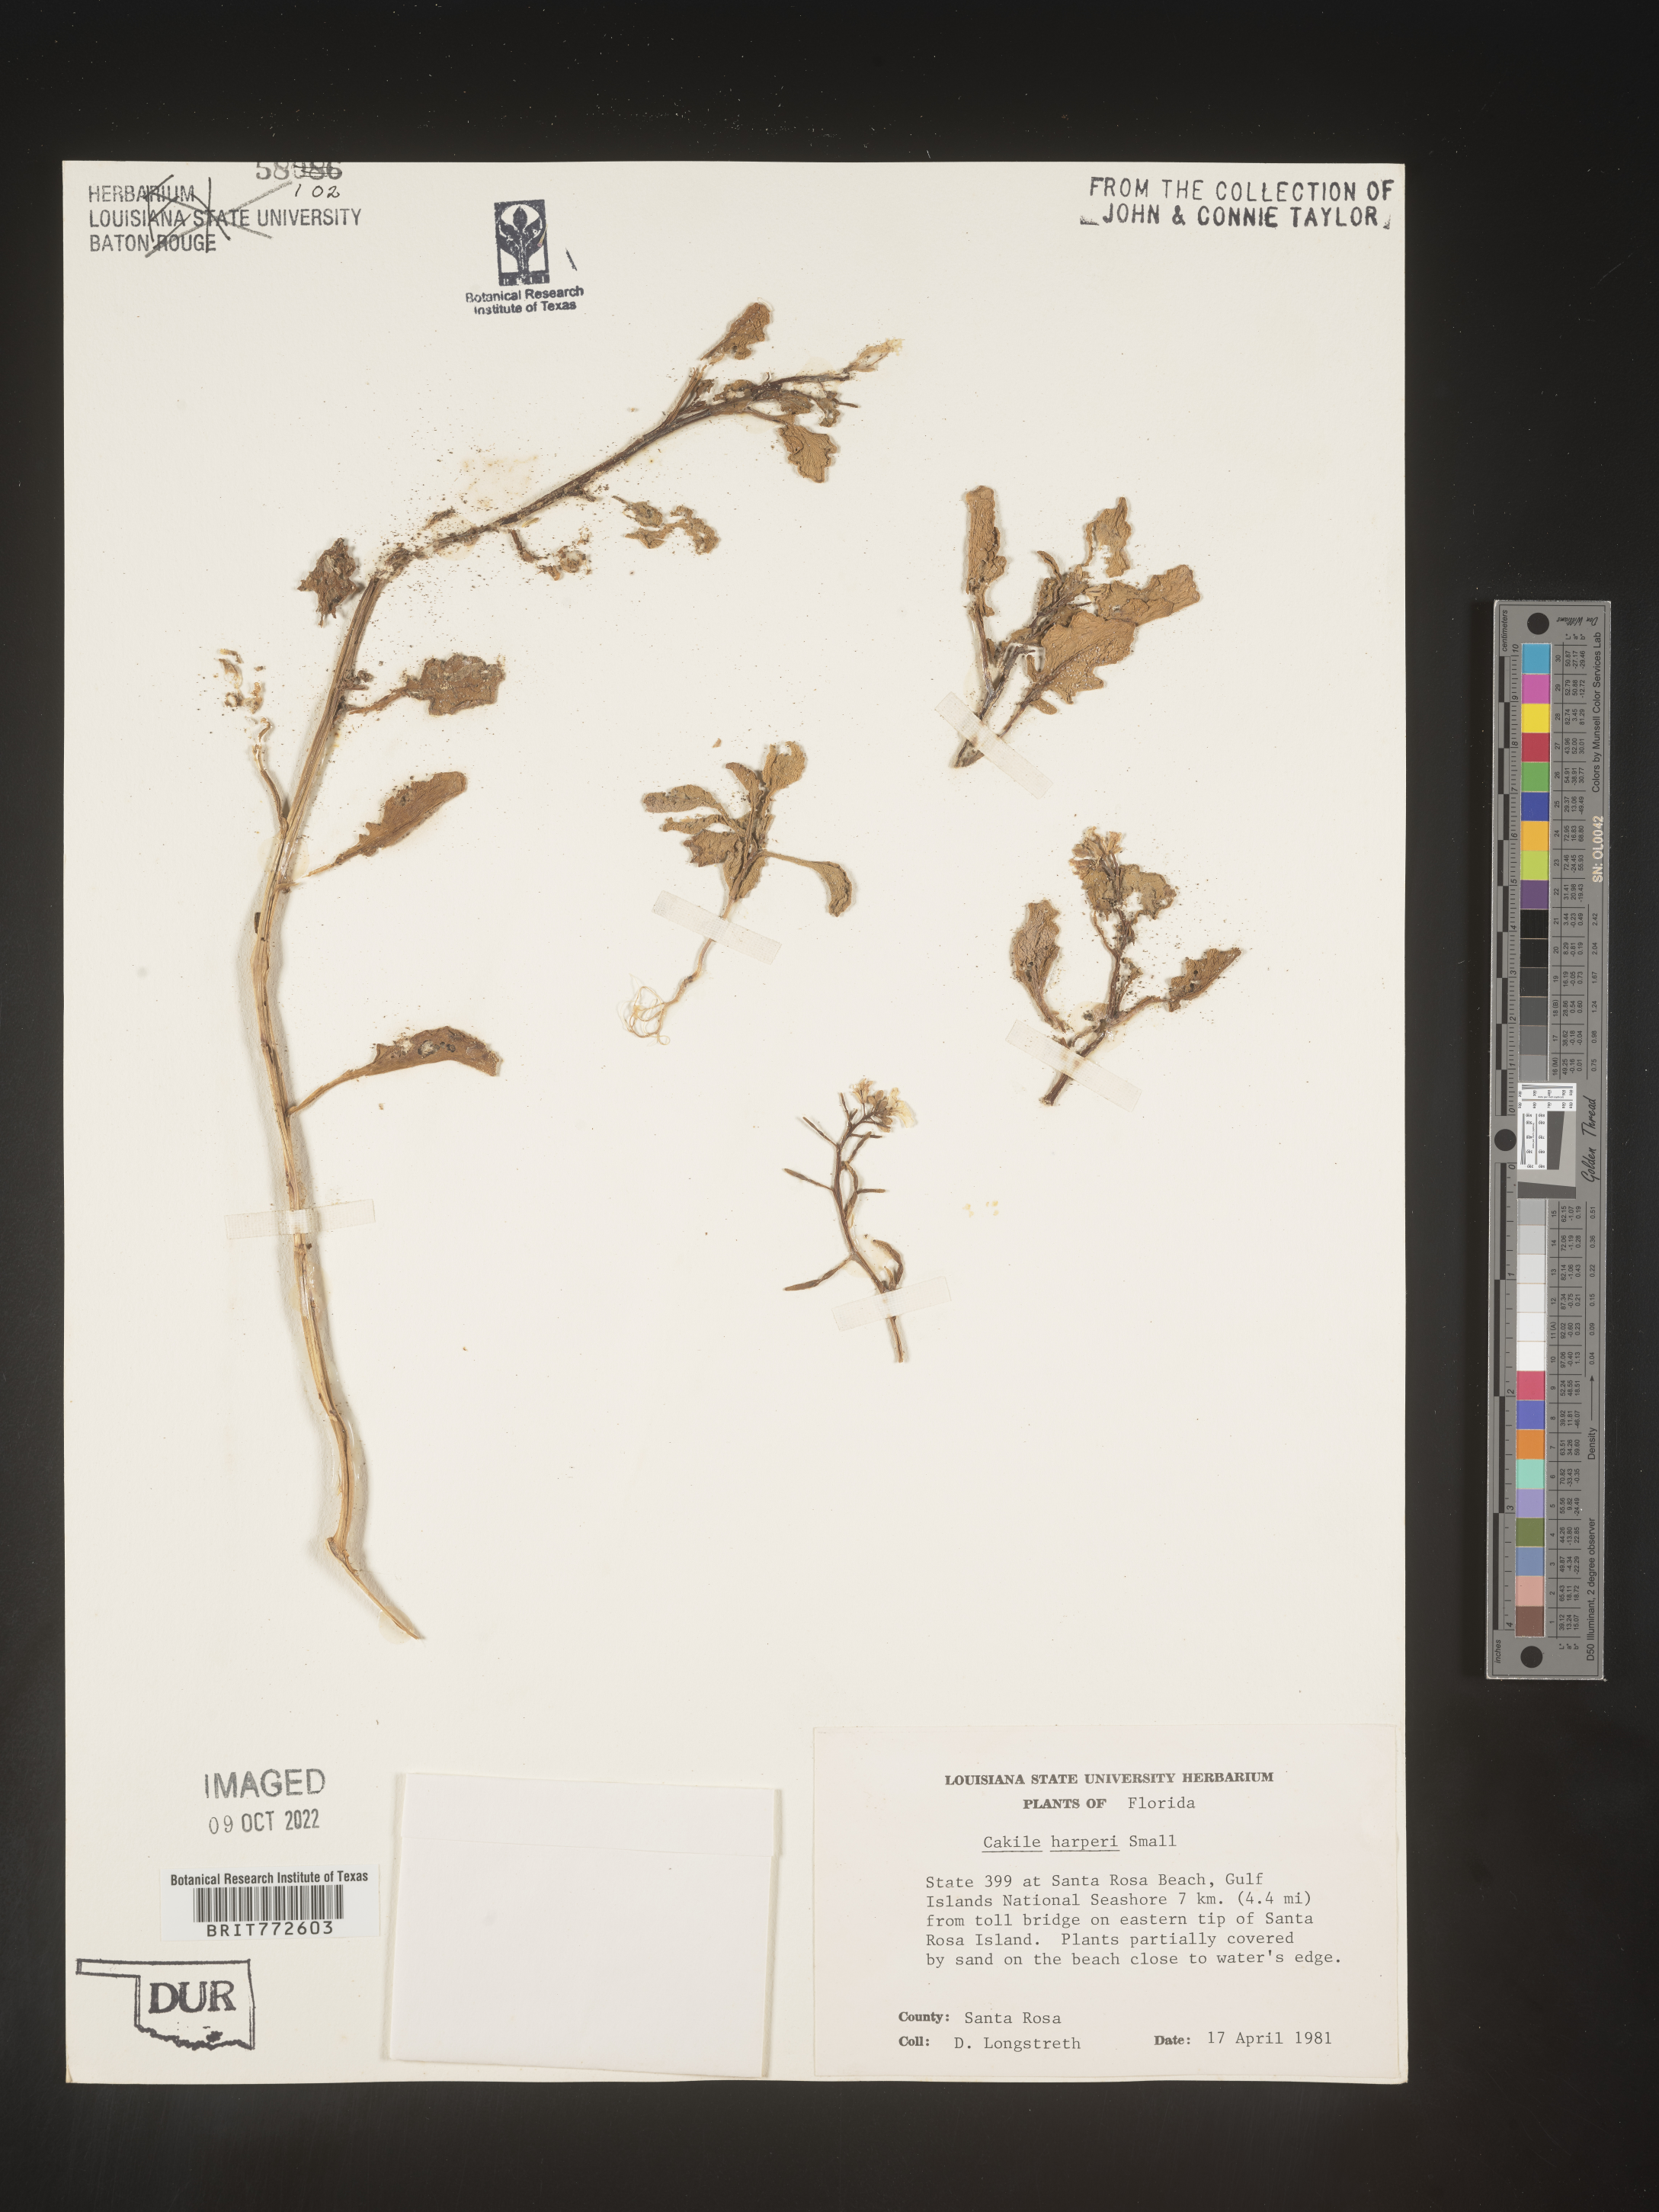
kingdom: Plantae
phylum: Tracheophyta
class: Magnoliopsida
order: Brassicales
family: Brassicaceae
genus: Cakile
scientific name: Cakile edentula
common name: American sea rocket
